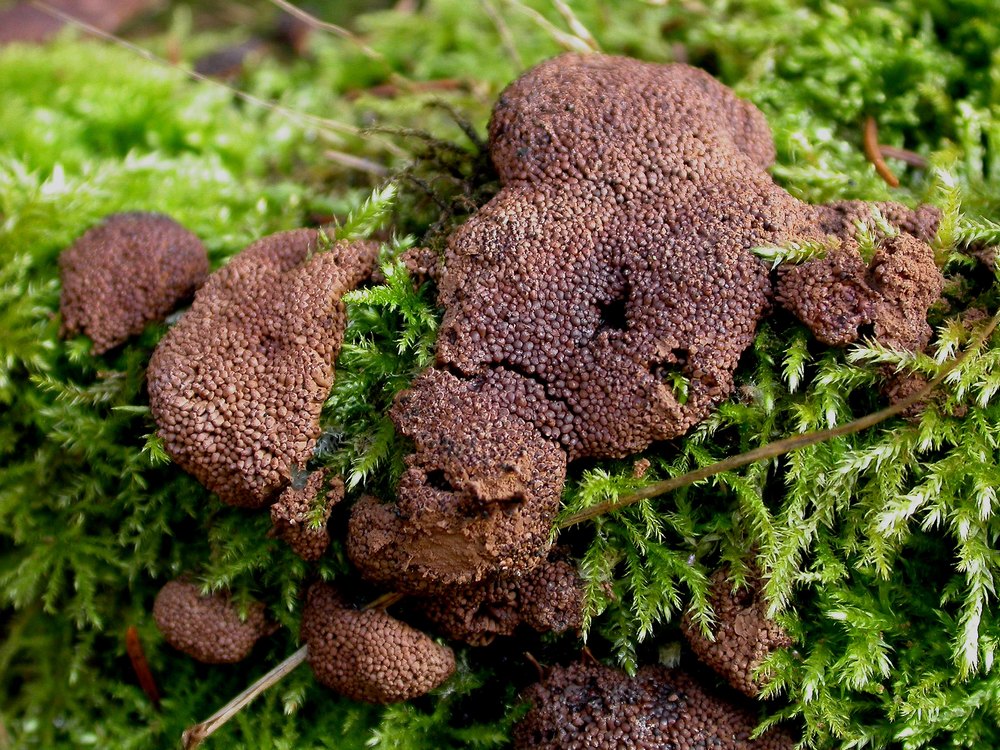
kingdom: Protozoa
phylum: Mycetozoa
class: Myxomycetes
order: Cribrariales
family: Tubiferaceae
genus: Tubifera
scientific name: Tubifera ferruginosa
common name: kanel-støvrør
